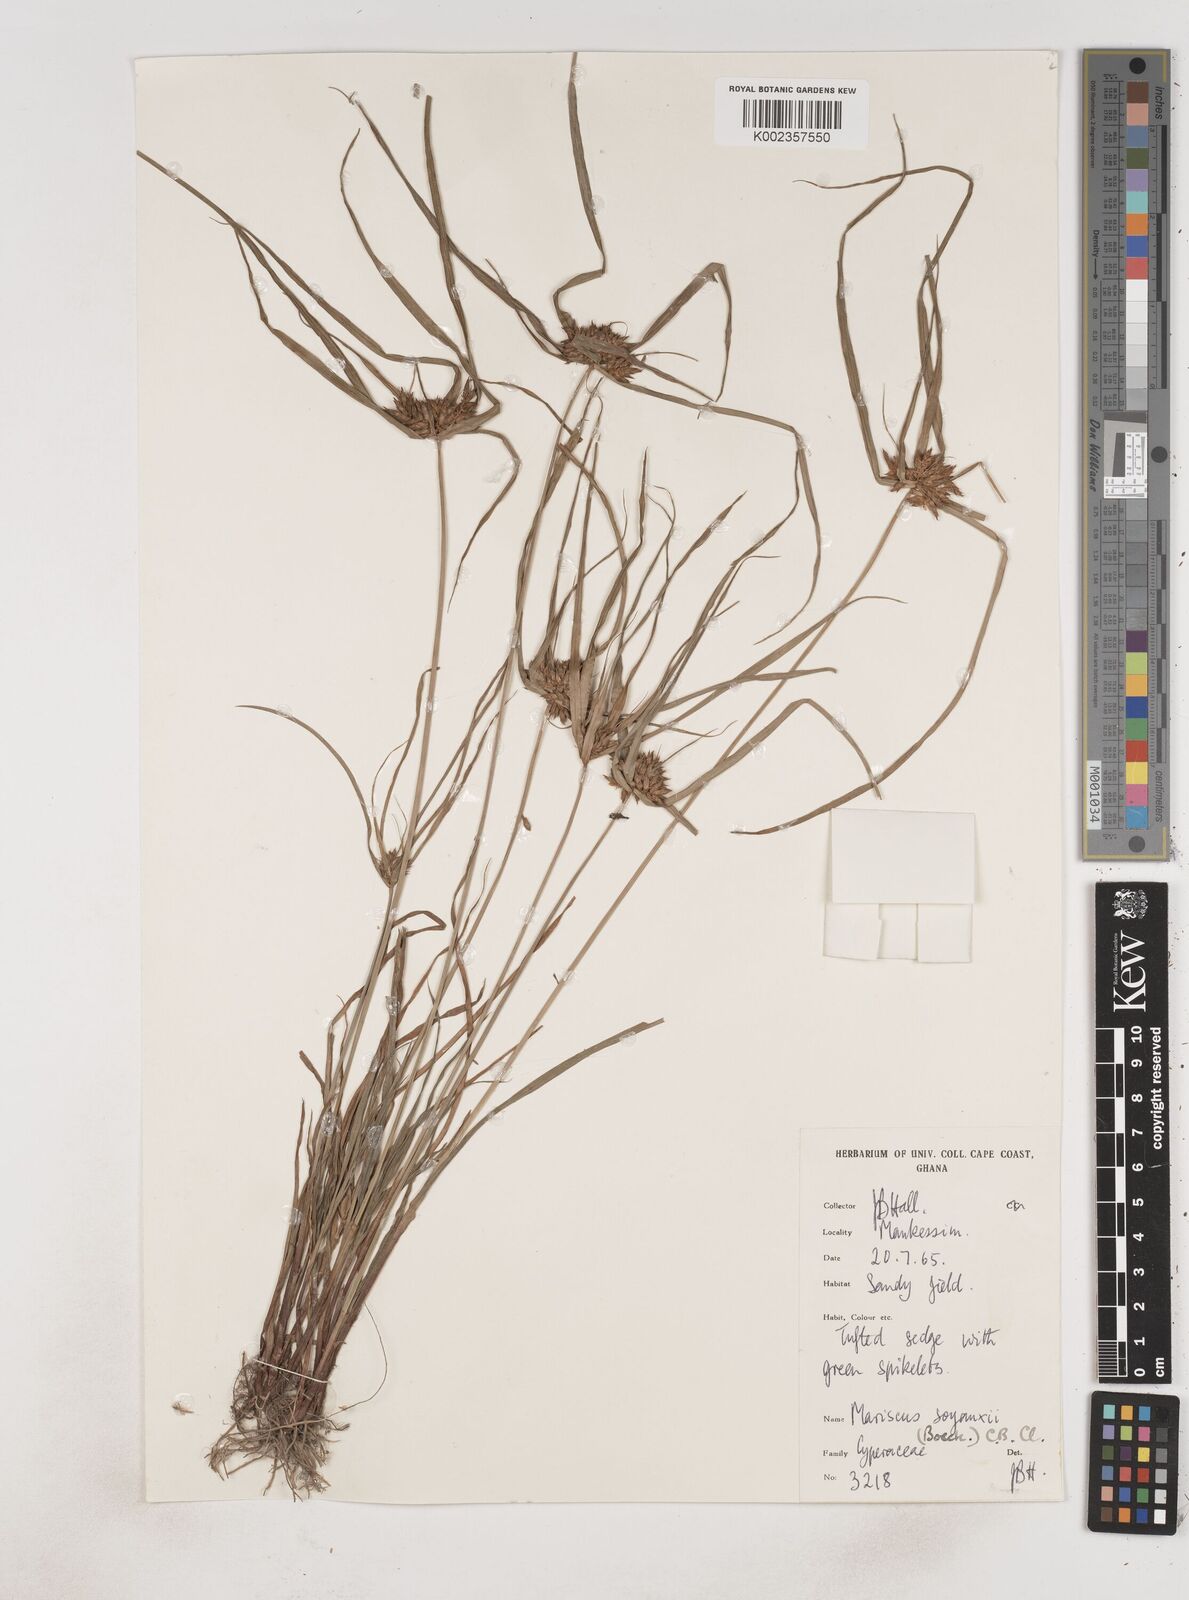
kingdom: Plantae
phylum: Tracheophyta
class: Liliopsida
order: Poales
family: Cyperaceae
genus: Cyperus
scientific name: Cyperus soyauxii
